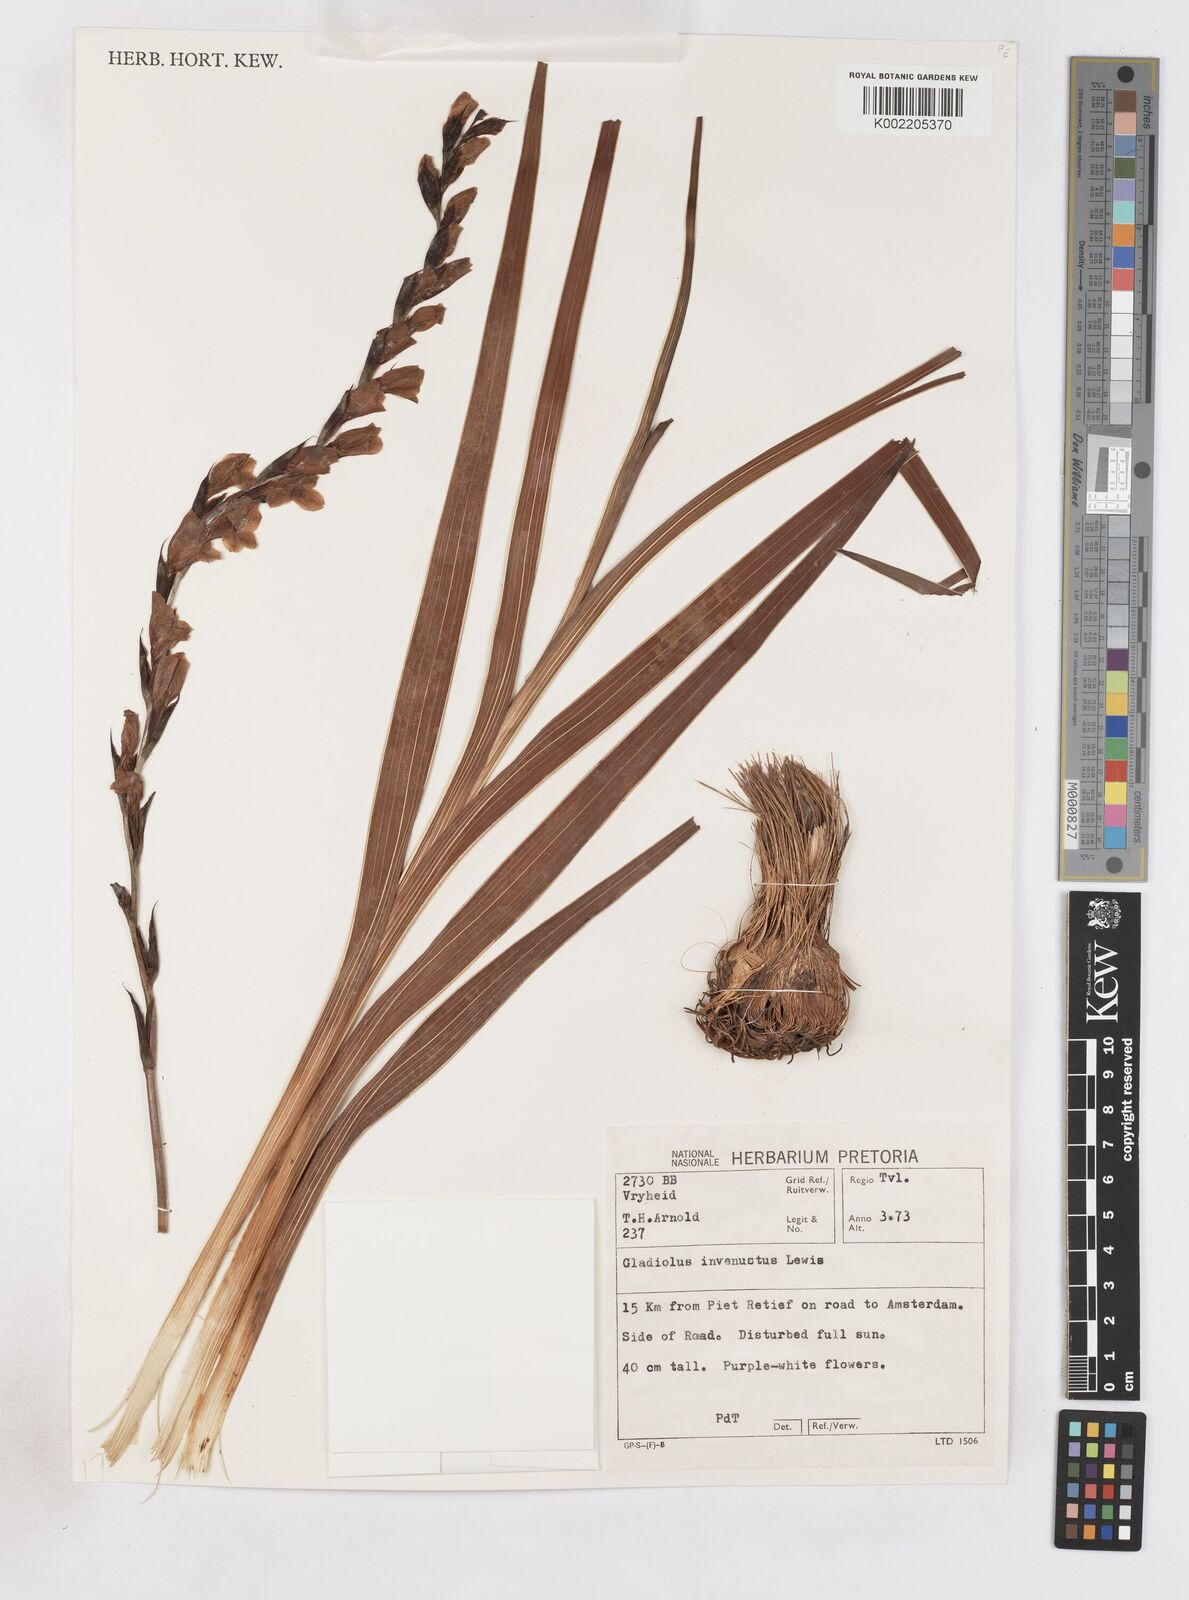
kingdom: Plantae
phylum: Tracheophyta
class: Liliopsida
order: Asparagales
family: Iridaceae
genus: Gladiolus
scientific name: Gladiolus crassifolius
